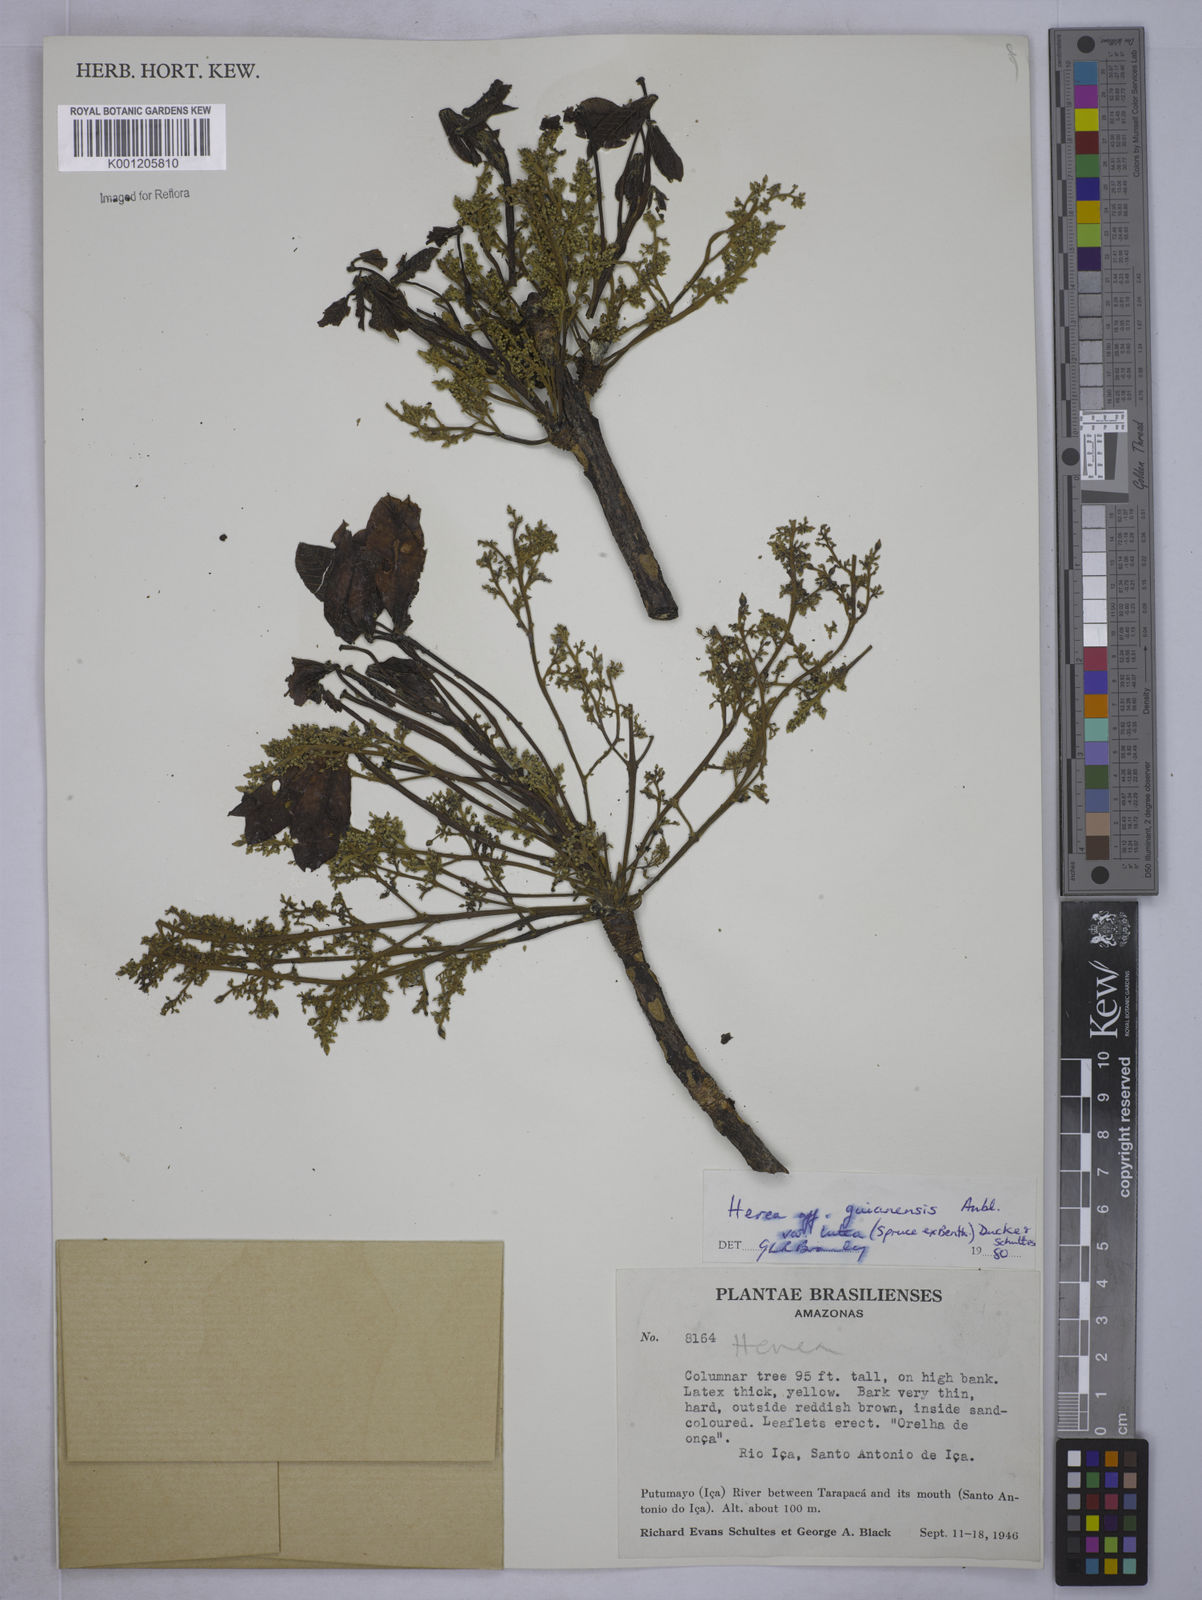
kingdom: Plantae
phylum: Tracheophyta
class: Magnoliopsida
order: Malpighiales
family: Euphorbiaceae
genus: Hevea
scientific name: Hevea guianensis
